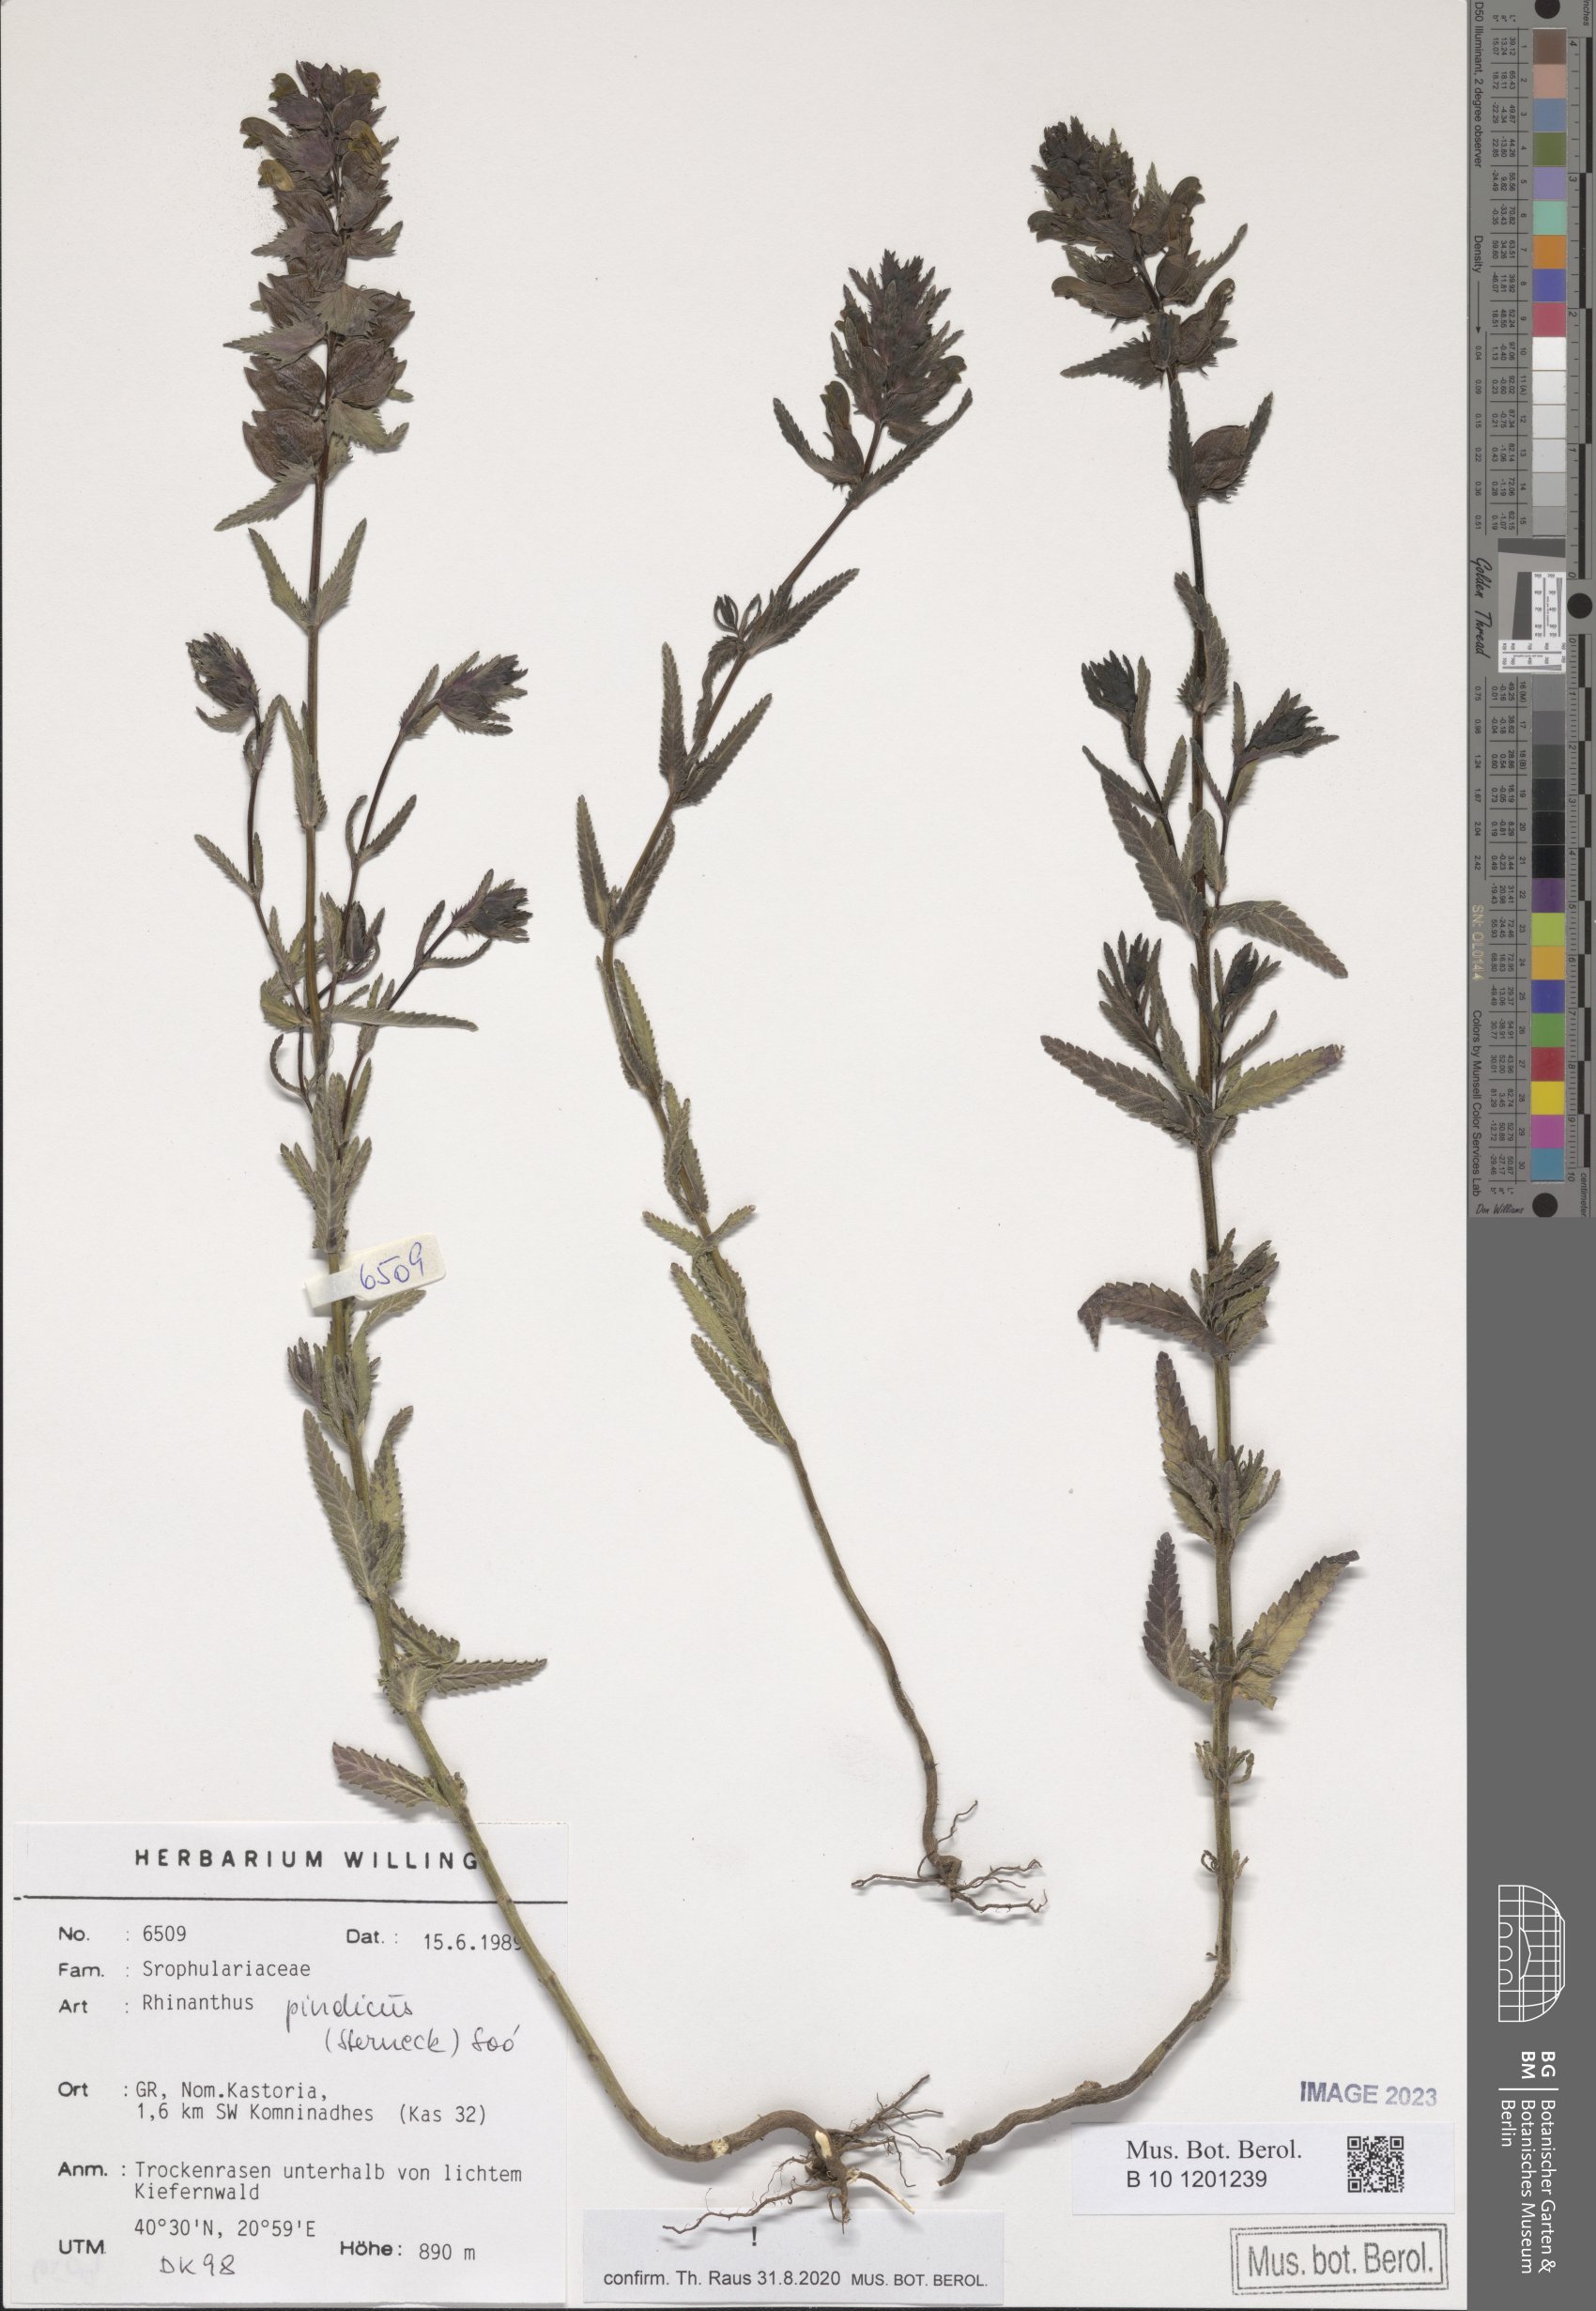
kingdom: Plantae
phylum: Tracheophyta
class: Magnoliopsida
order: Lamiales
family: Orobanchaceae
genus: Rhinanthus
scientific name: Rhinanthus pindicus
